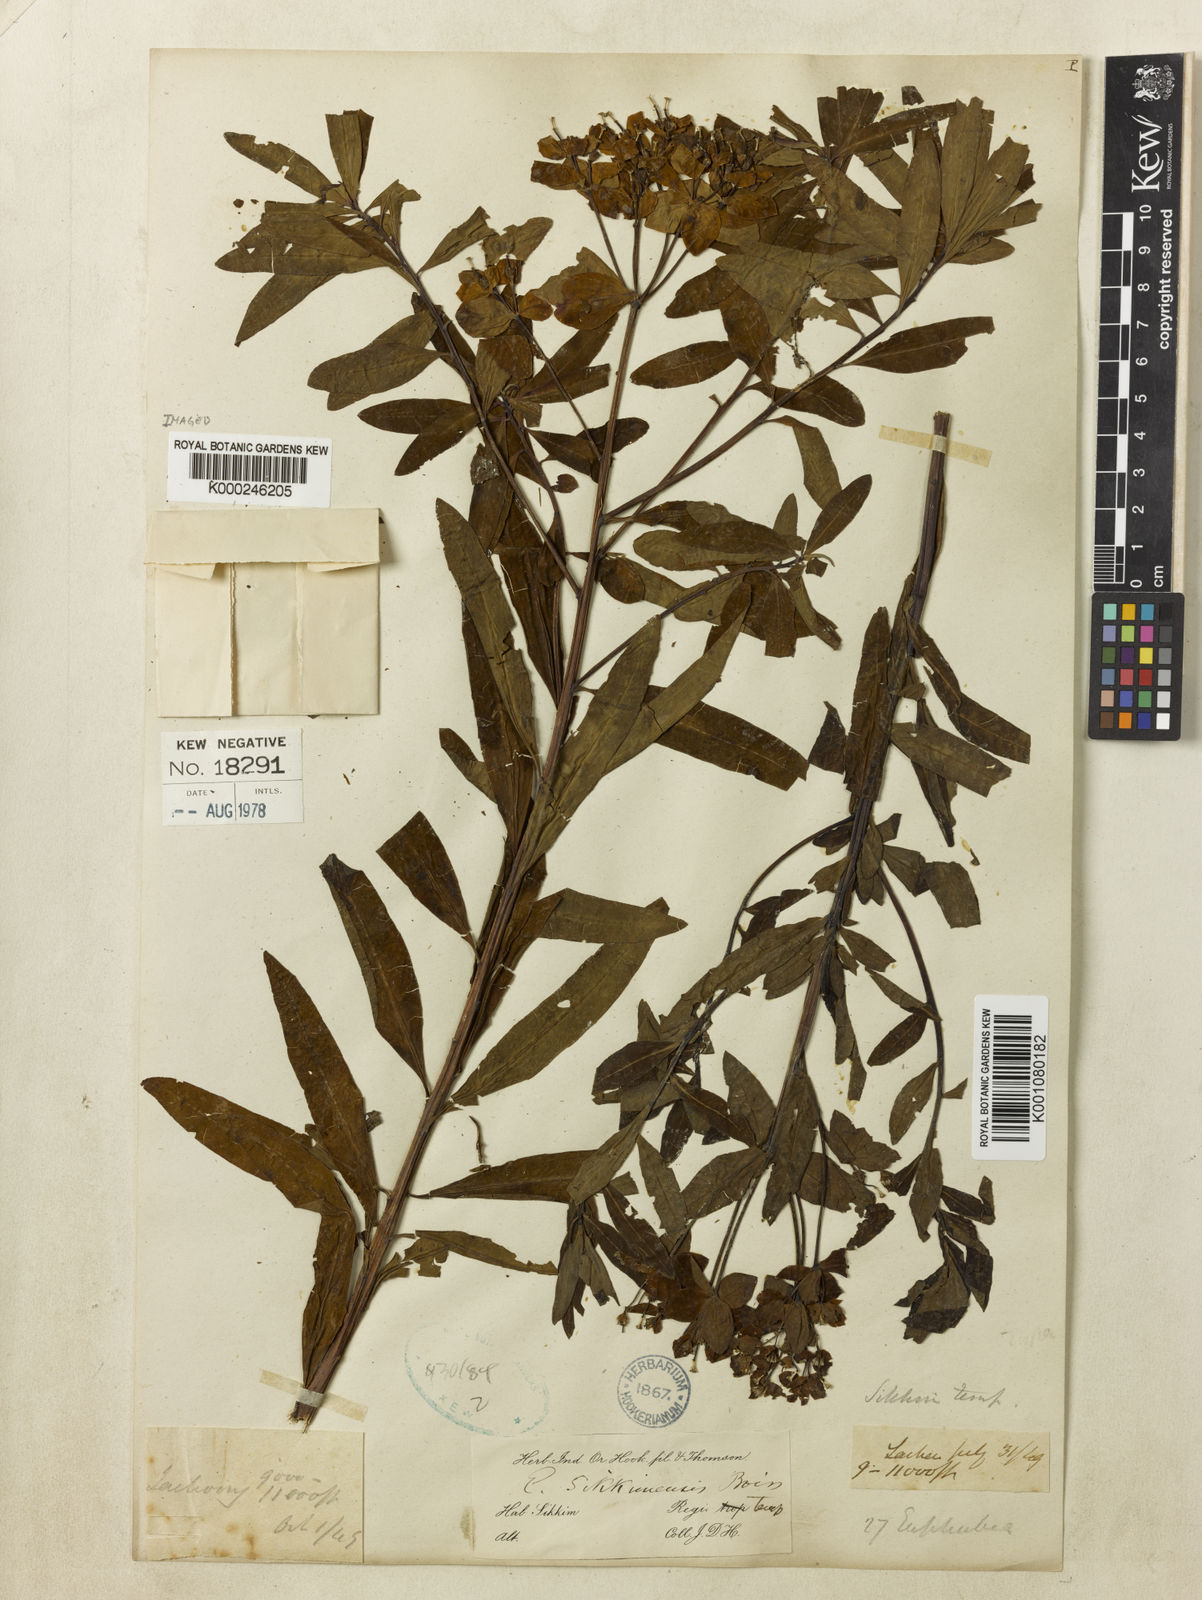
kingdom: Plantae
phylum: Tracheophyta
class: Magnoliopsida
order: Malpighiales
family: Euphorbiaceae
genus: Euphorbia
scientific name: Euphorbia sikkimensis
